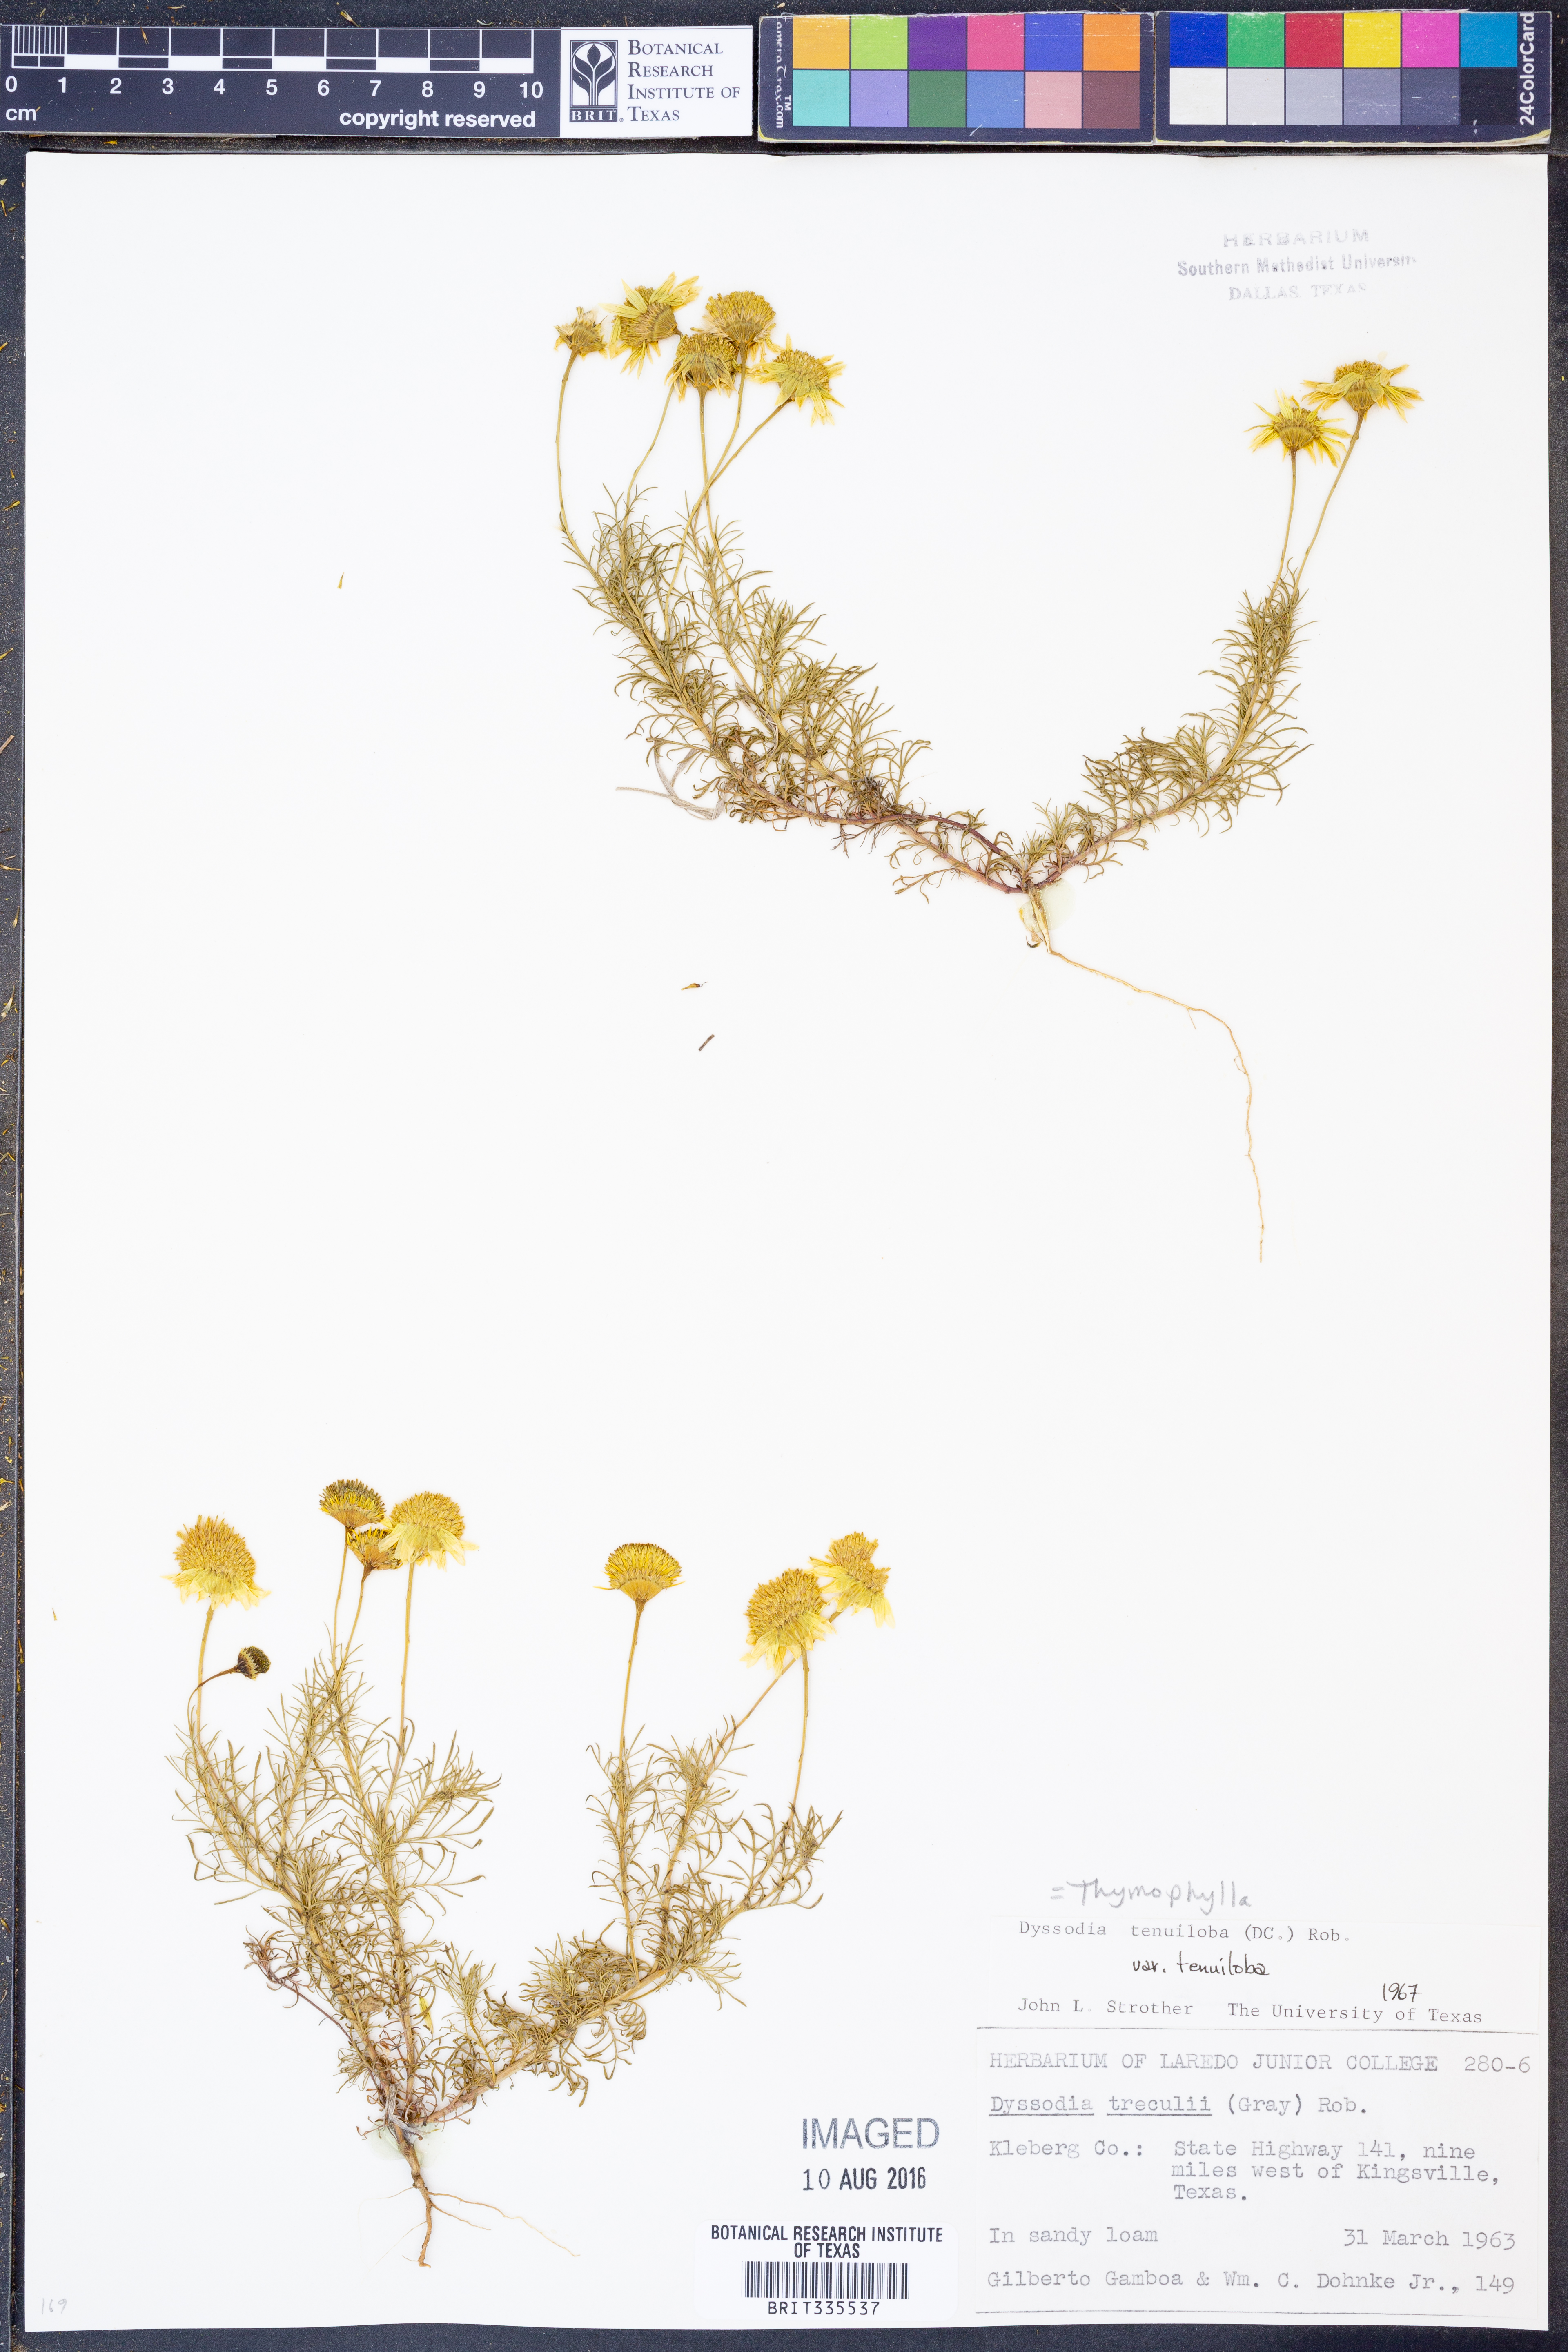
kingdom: Plantae
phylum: Tracheophyta
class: Magnoliopsida
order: Asterales
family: Asteraceae
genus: Thymophylla
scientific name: Thymophylla tenuiloba
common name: Dahlberg's daisy
